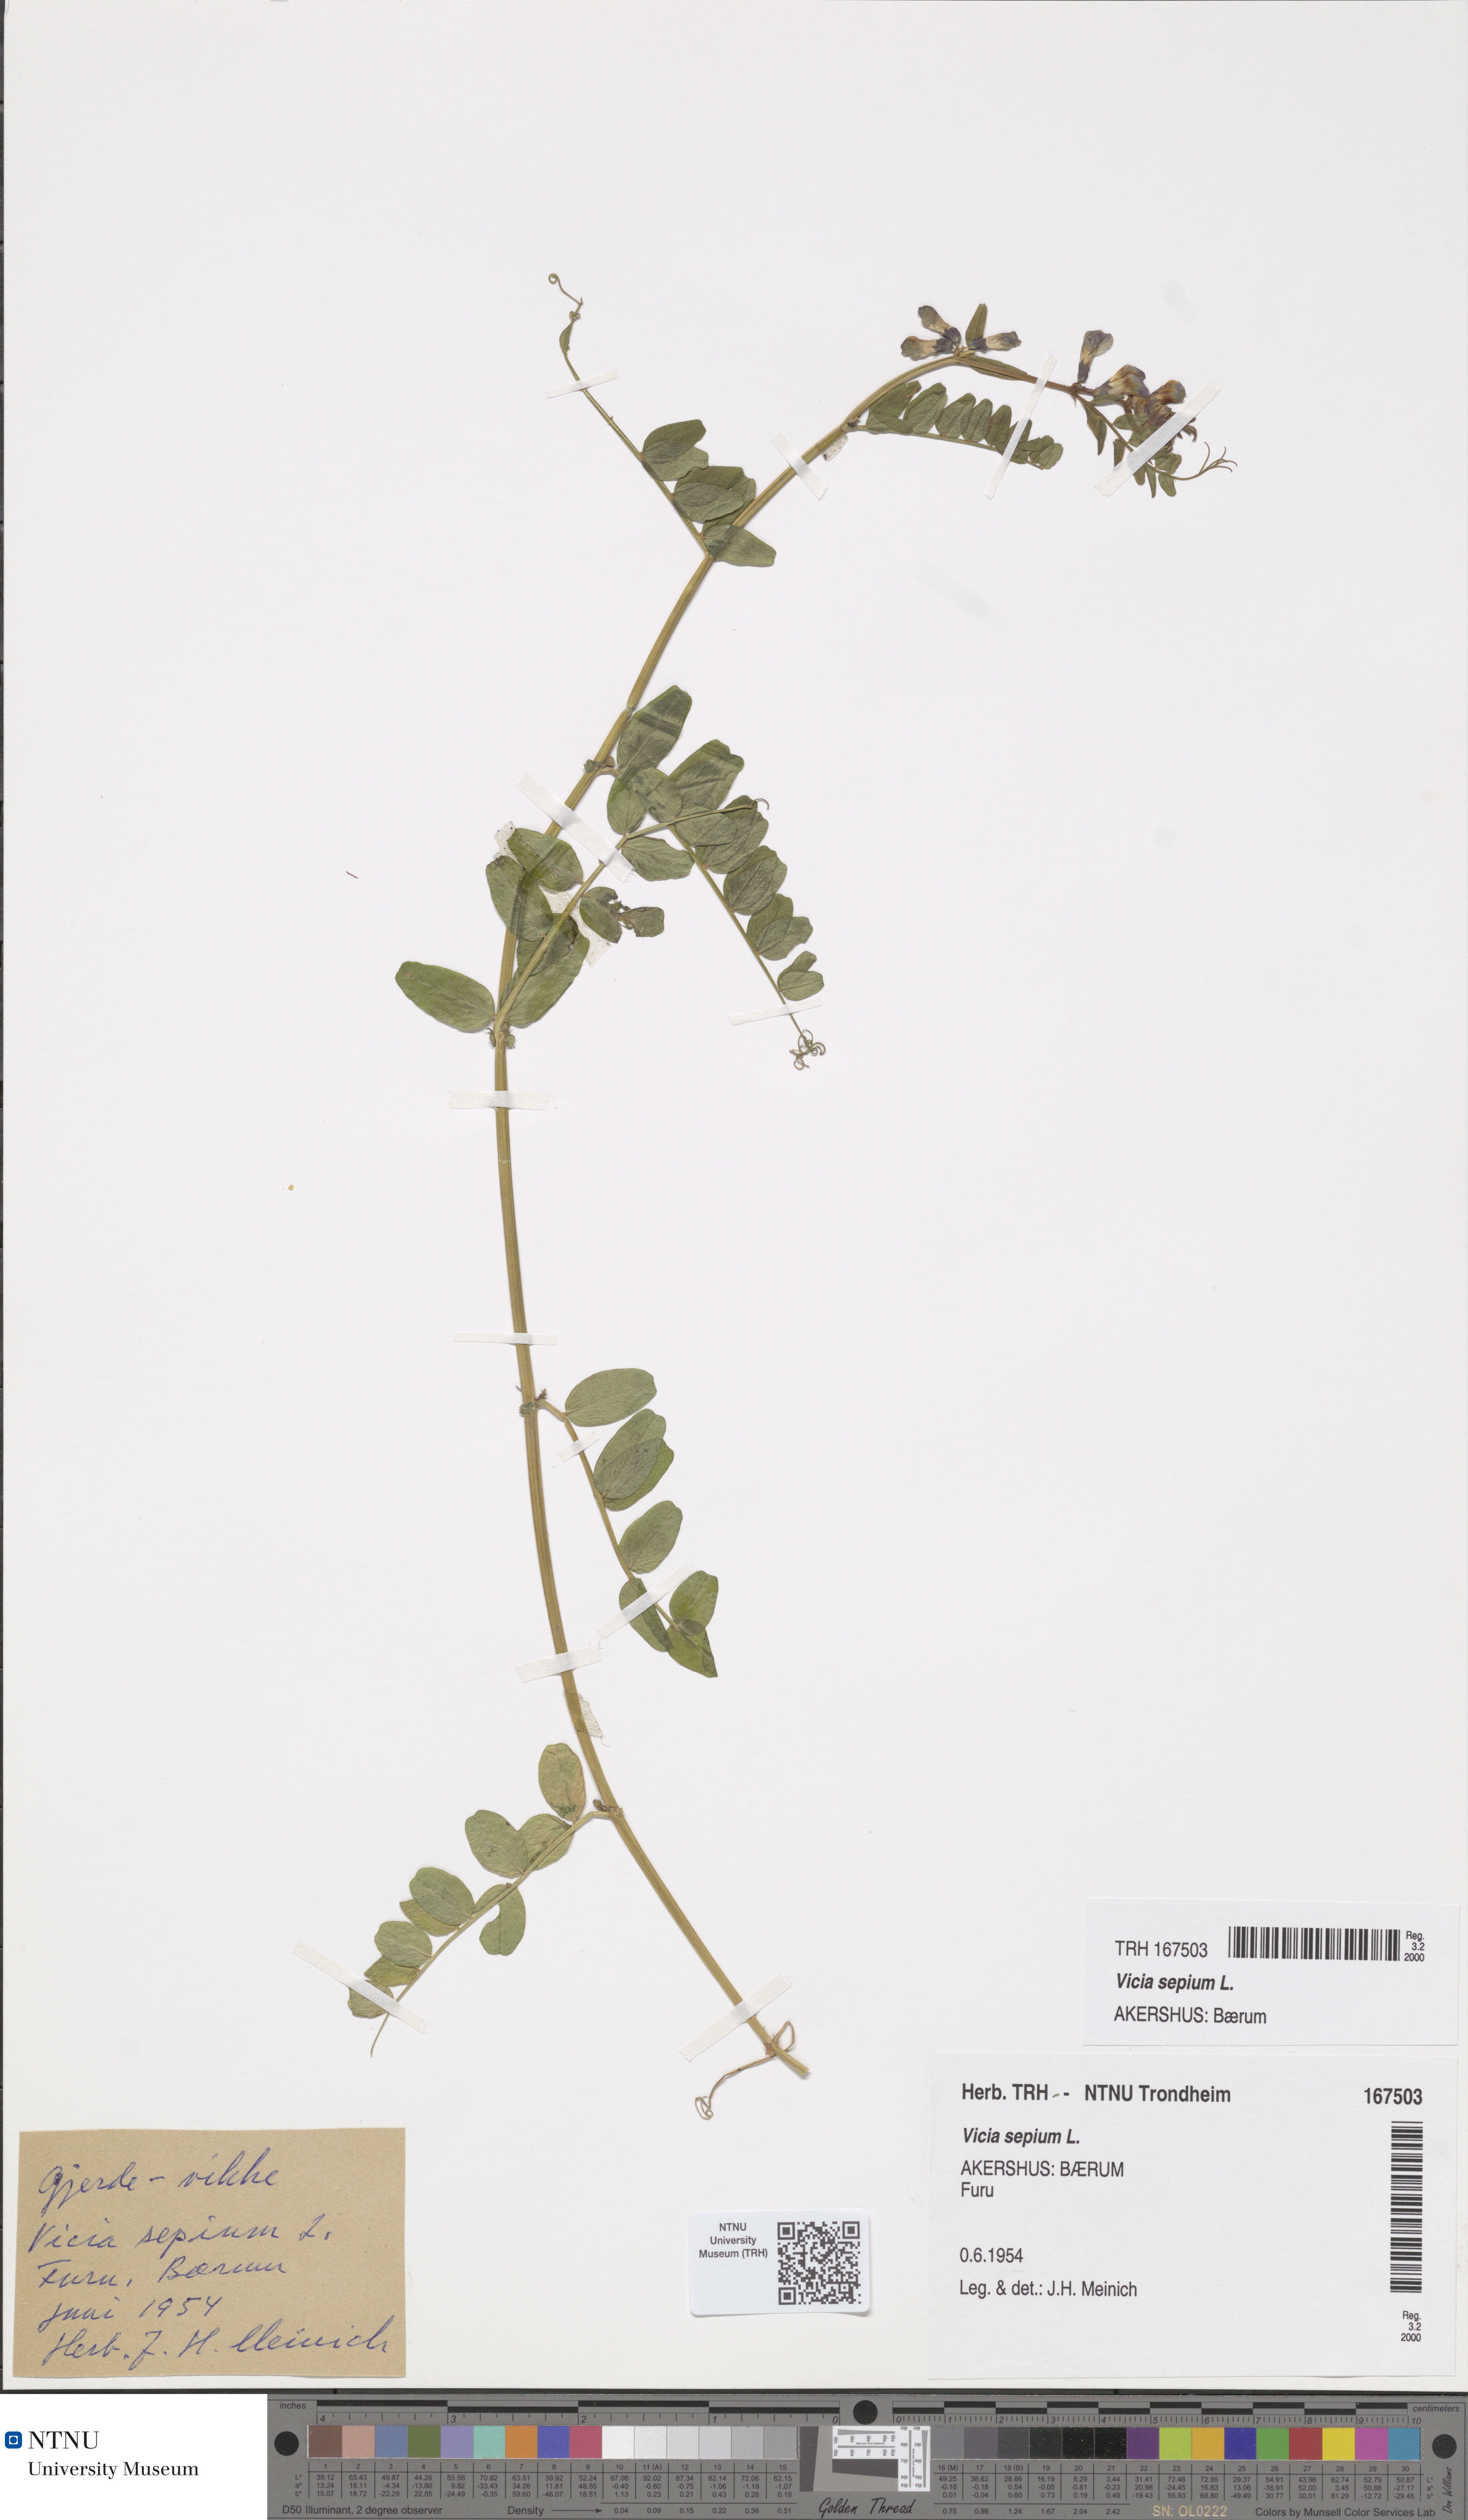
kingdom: Plantae
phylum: Tracheophyta
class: Magnoliopsida
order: Fabales
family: Fabaceae
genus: Vicia
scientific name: Vicia sepium
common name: Bush vetch
